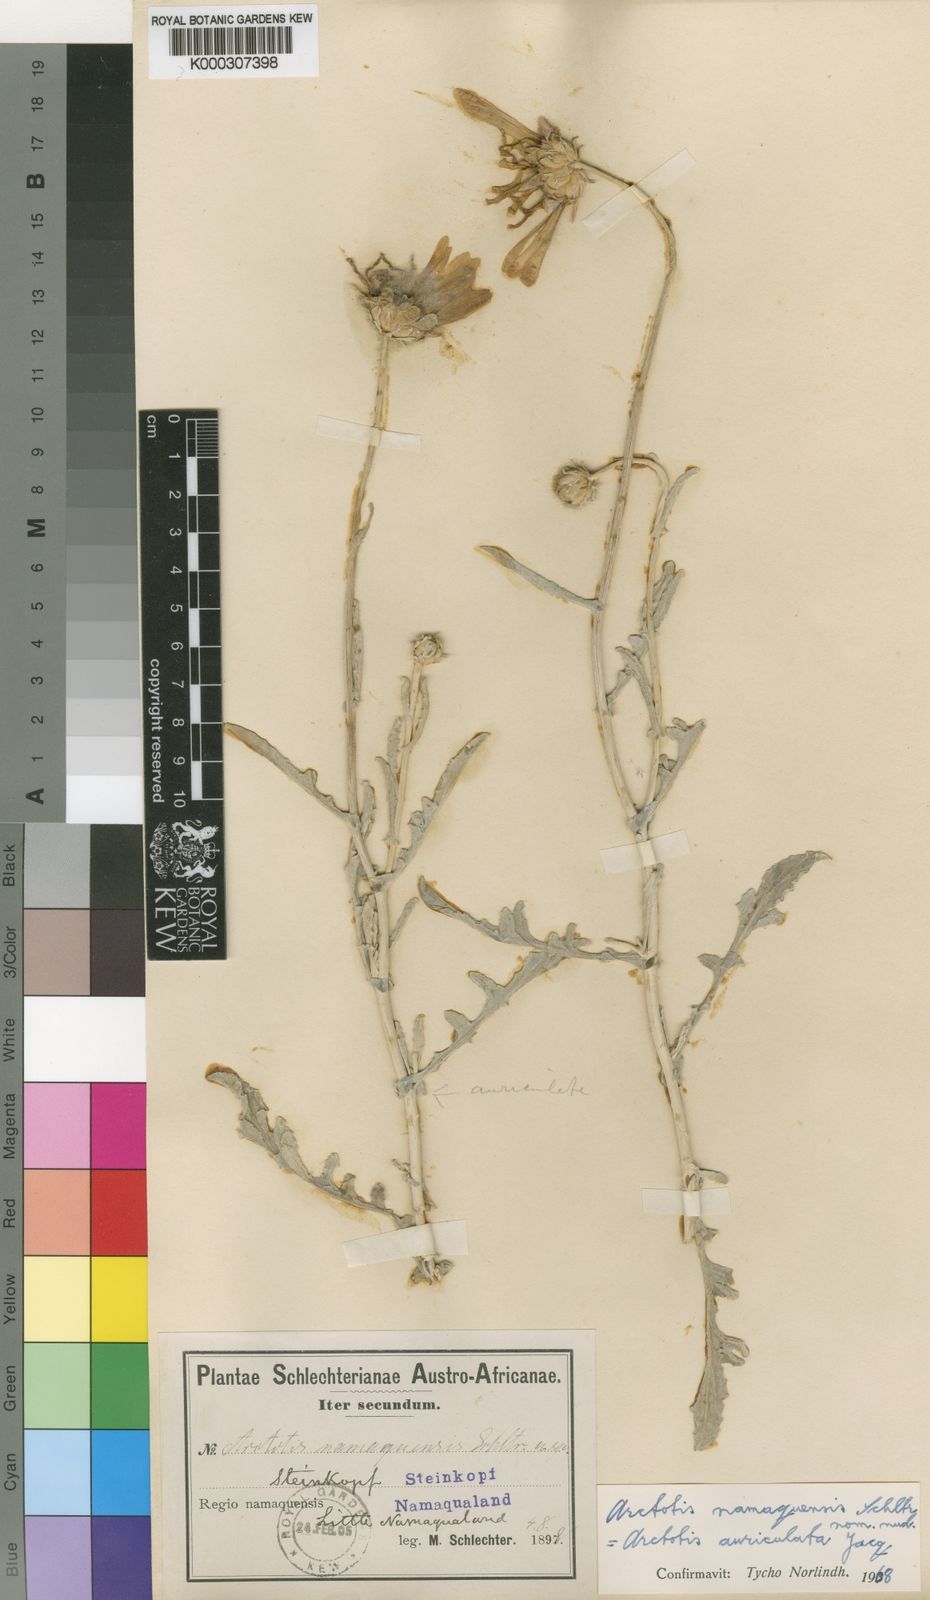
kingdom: Plantae
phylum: Tracheophyta
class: Magnoliopsida
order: Asterales
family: Asteraceae
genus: Arctotis
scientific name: Arctotis auriculata
